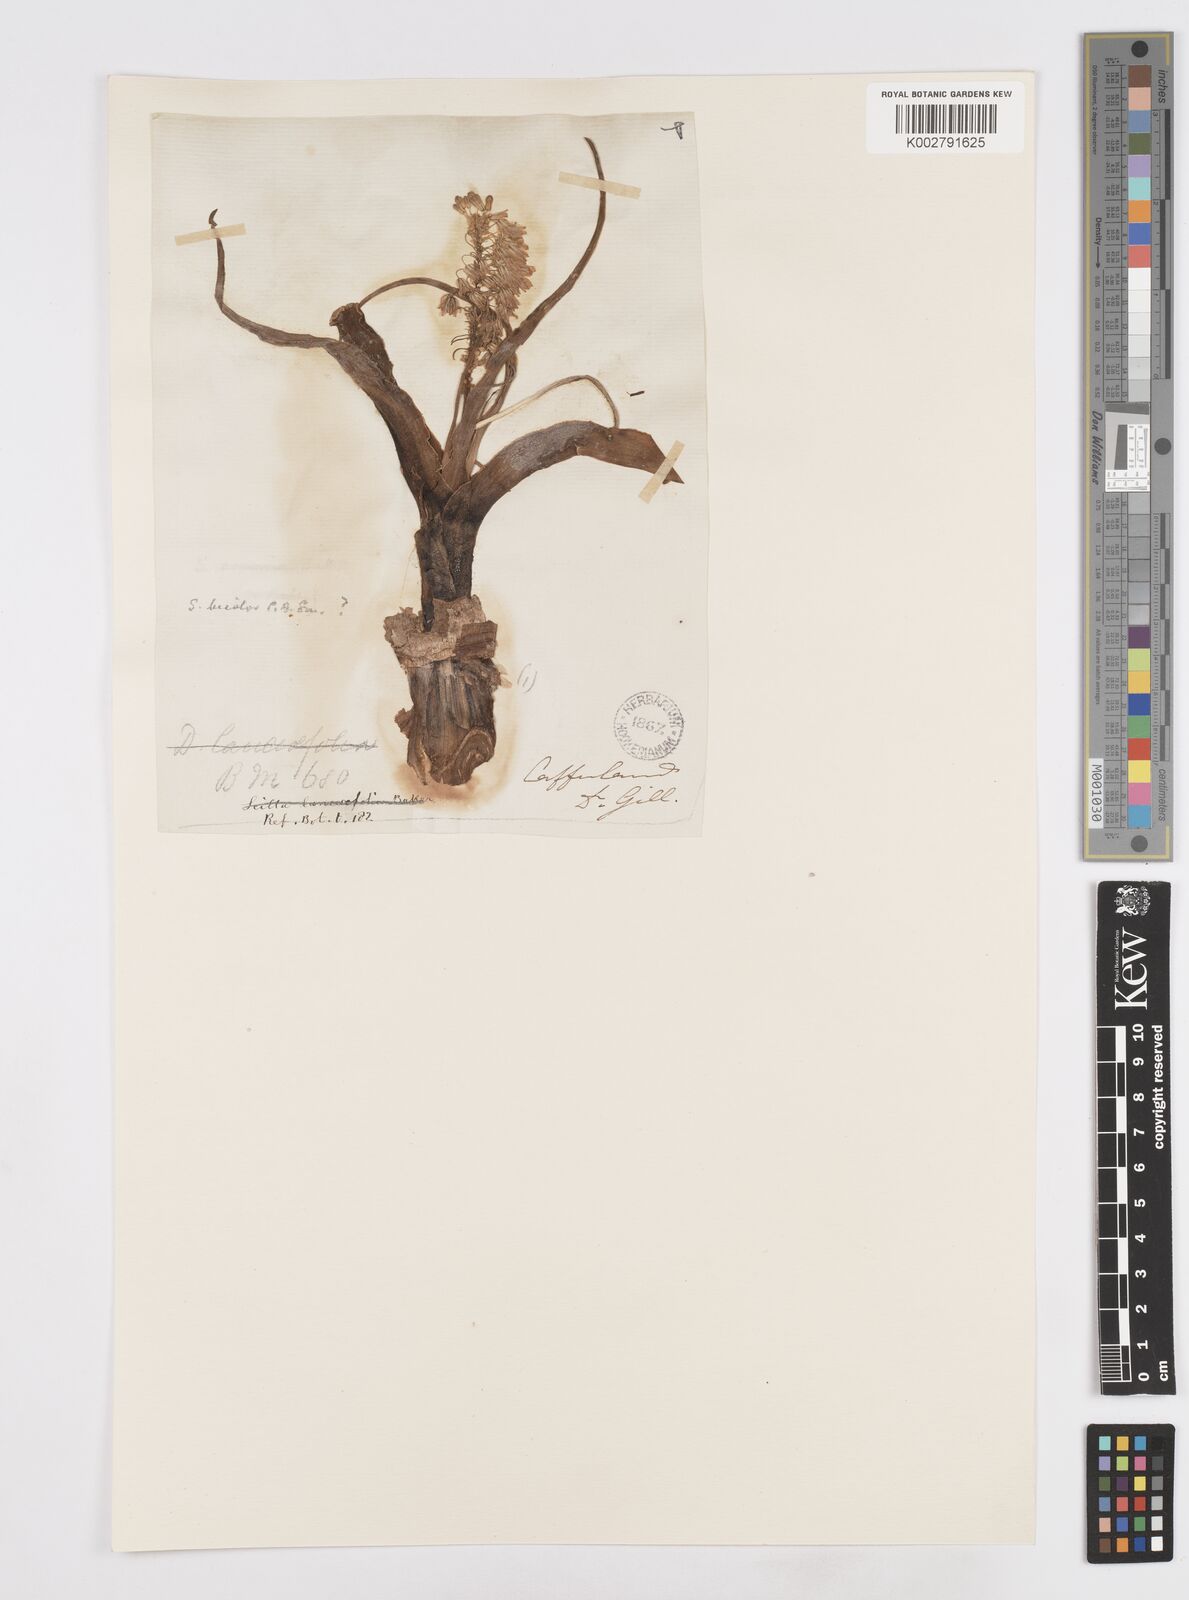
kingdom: Plantae
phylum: Tracheophyta
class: Liliopsida
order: Asparagales
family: Asparagaceae
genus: Scilla
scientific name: Scilla
